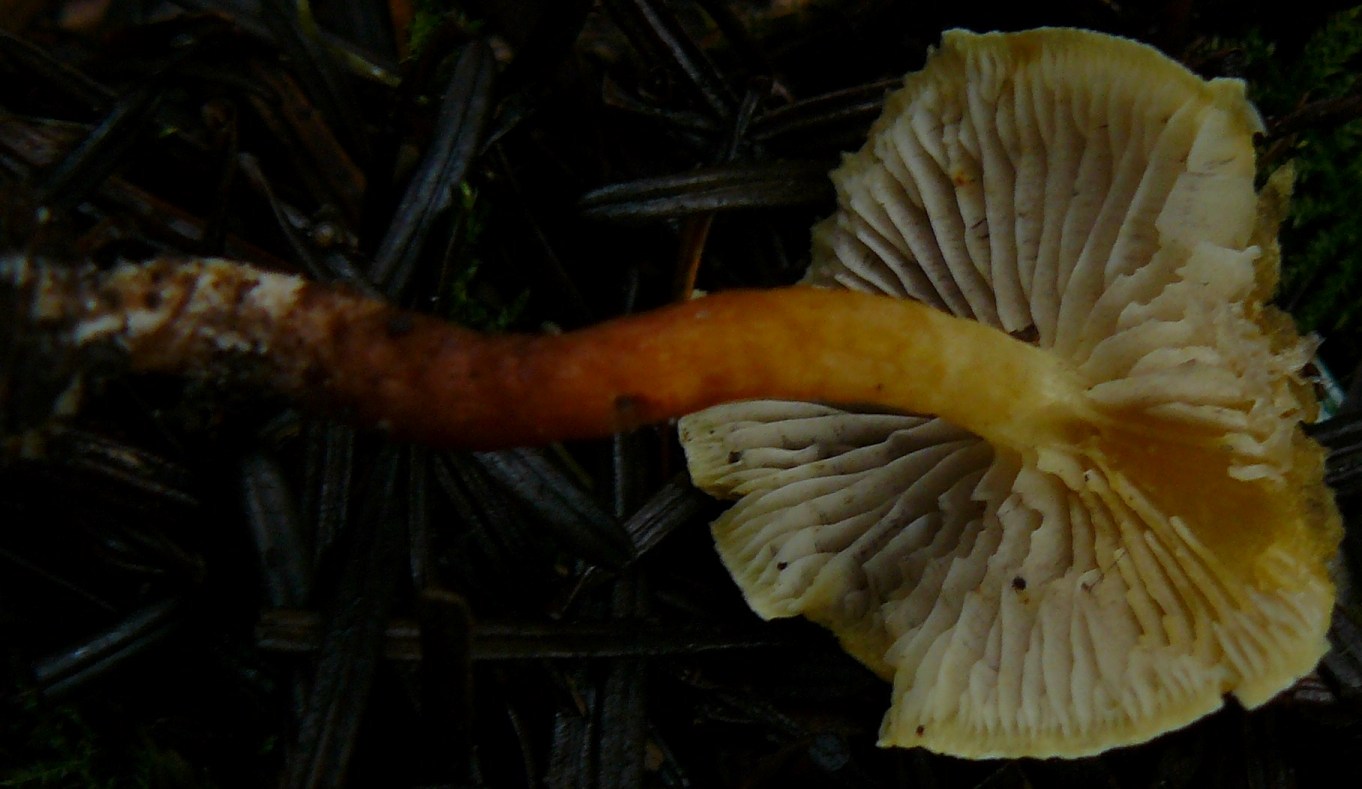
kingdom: Fungi
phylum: Basidiomycota
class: Agaricomycetes
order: Agaricales
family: Strophariaceae
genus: Hypholoma
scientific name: Hypholoma capnoides
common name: gran-svovlhat
